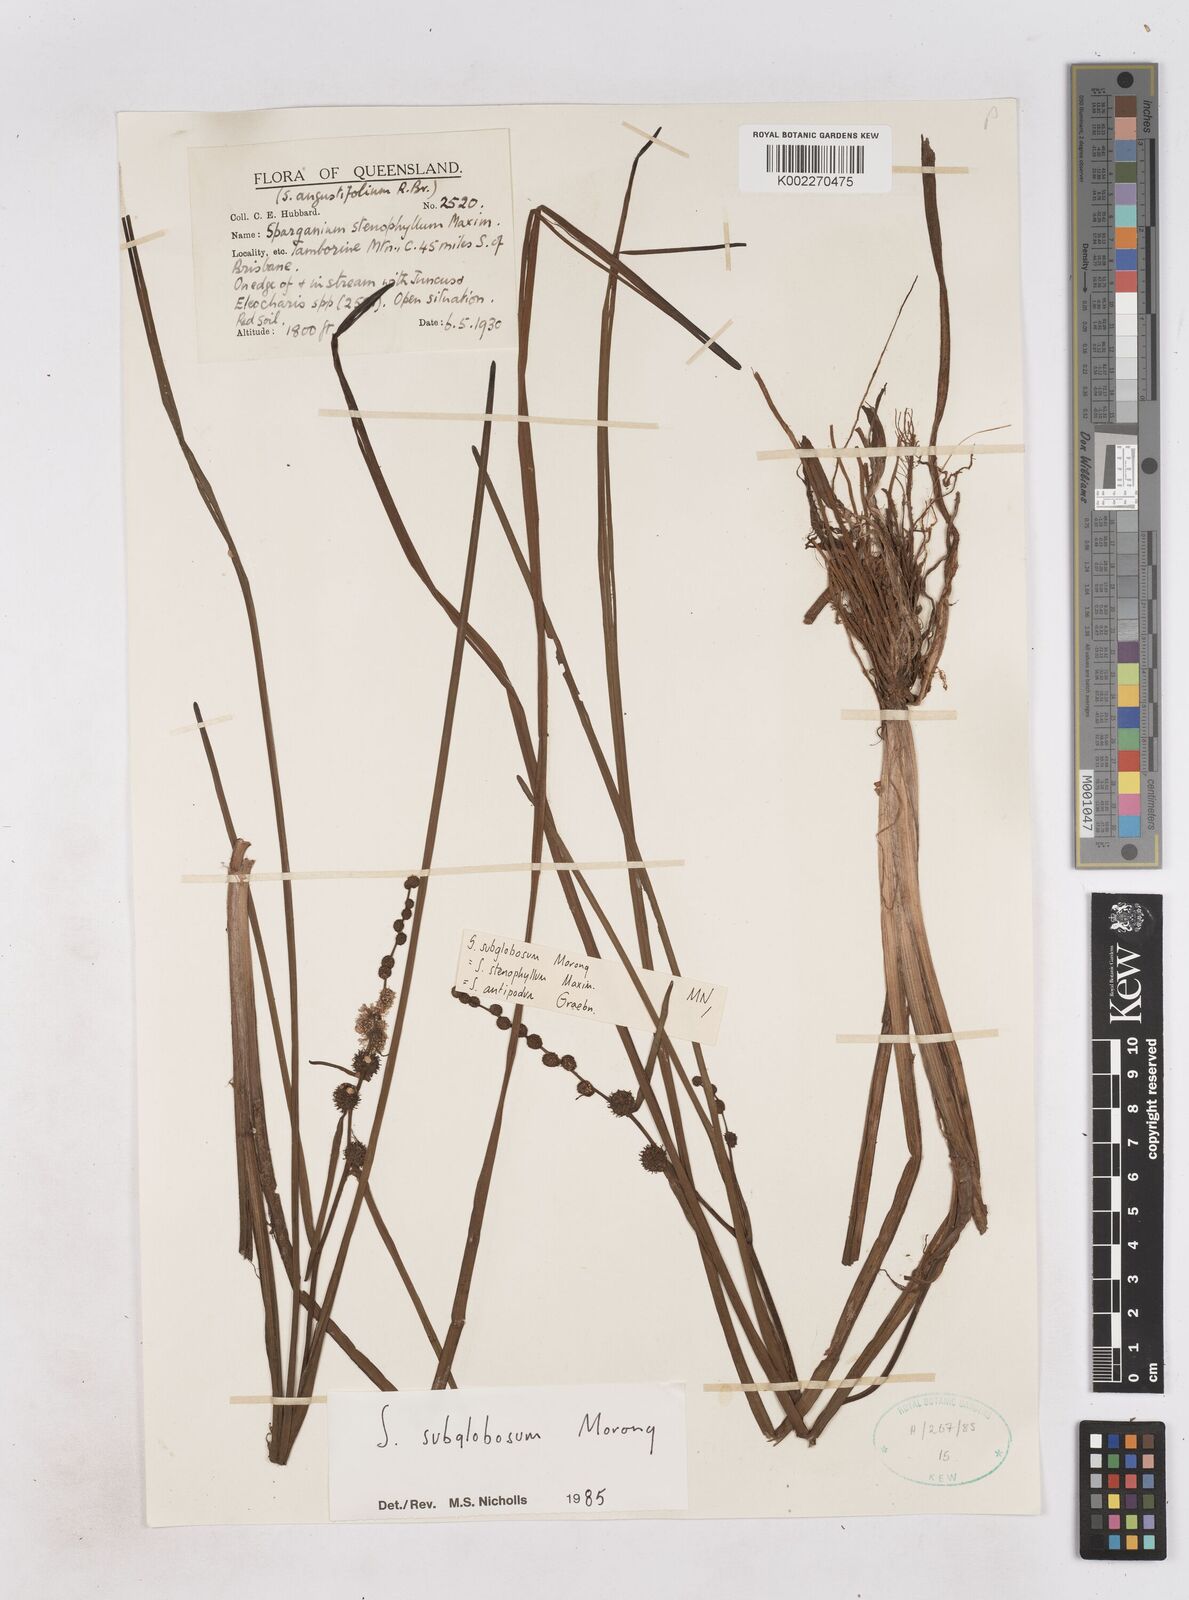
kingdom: Plantae
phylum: Tracheophyta
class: Liliopsida
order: Poales
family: Typhaceae
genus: Sparganium
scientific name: Sparganium subglobosum
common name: Burr­-reed
